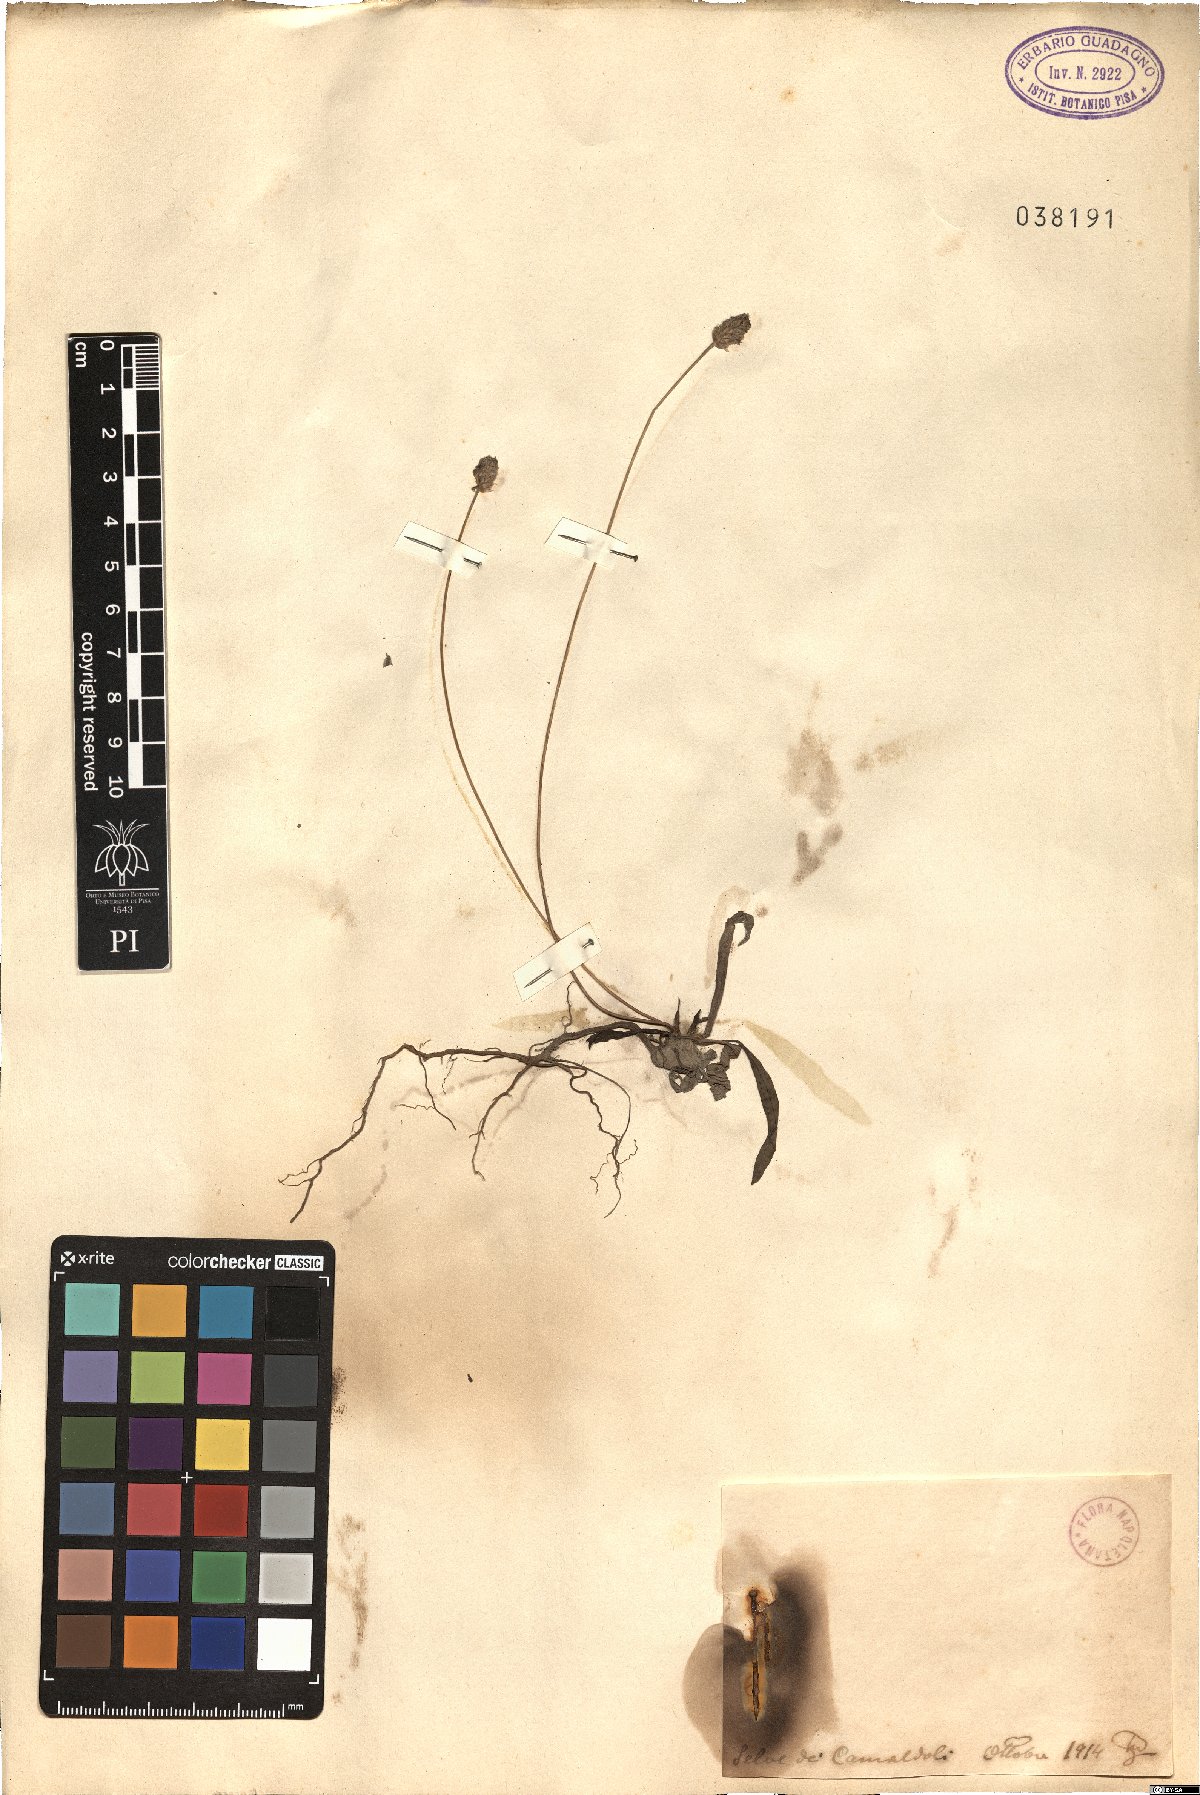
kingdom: Plantae
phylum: Tracheophyta
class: Magnoliopsida
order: Lamiales
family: Plantaginaceae
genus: Plantago
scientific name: Plantago
